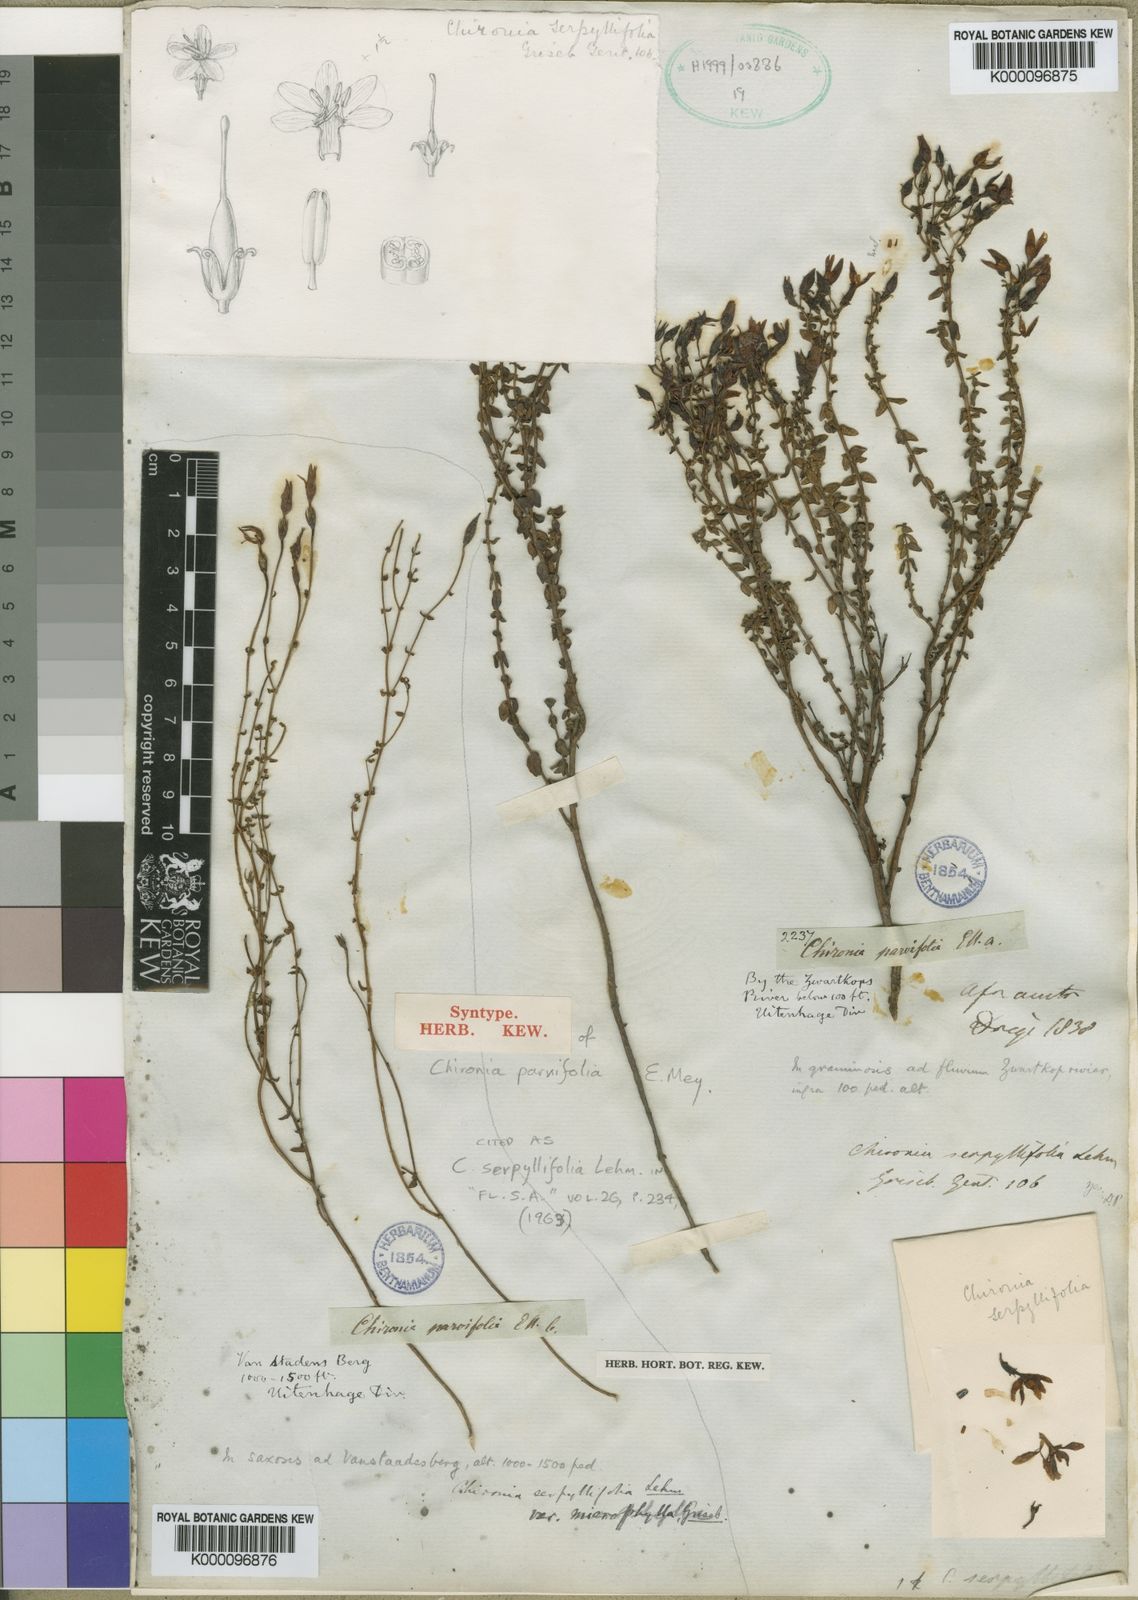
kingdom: Plantae
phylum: Tracheophyta
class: Magnoliopsida
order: Gentianales
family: Gentianaceae
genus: Chironia
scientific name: Chironia serpyllifolia
